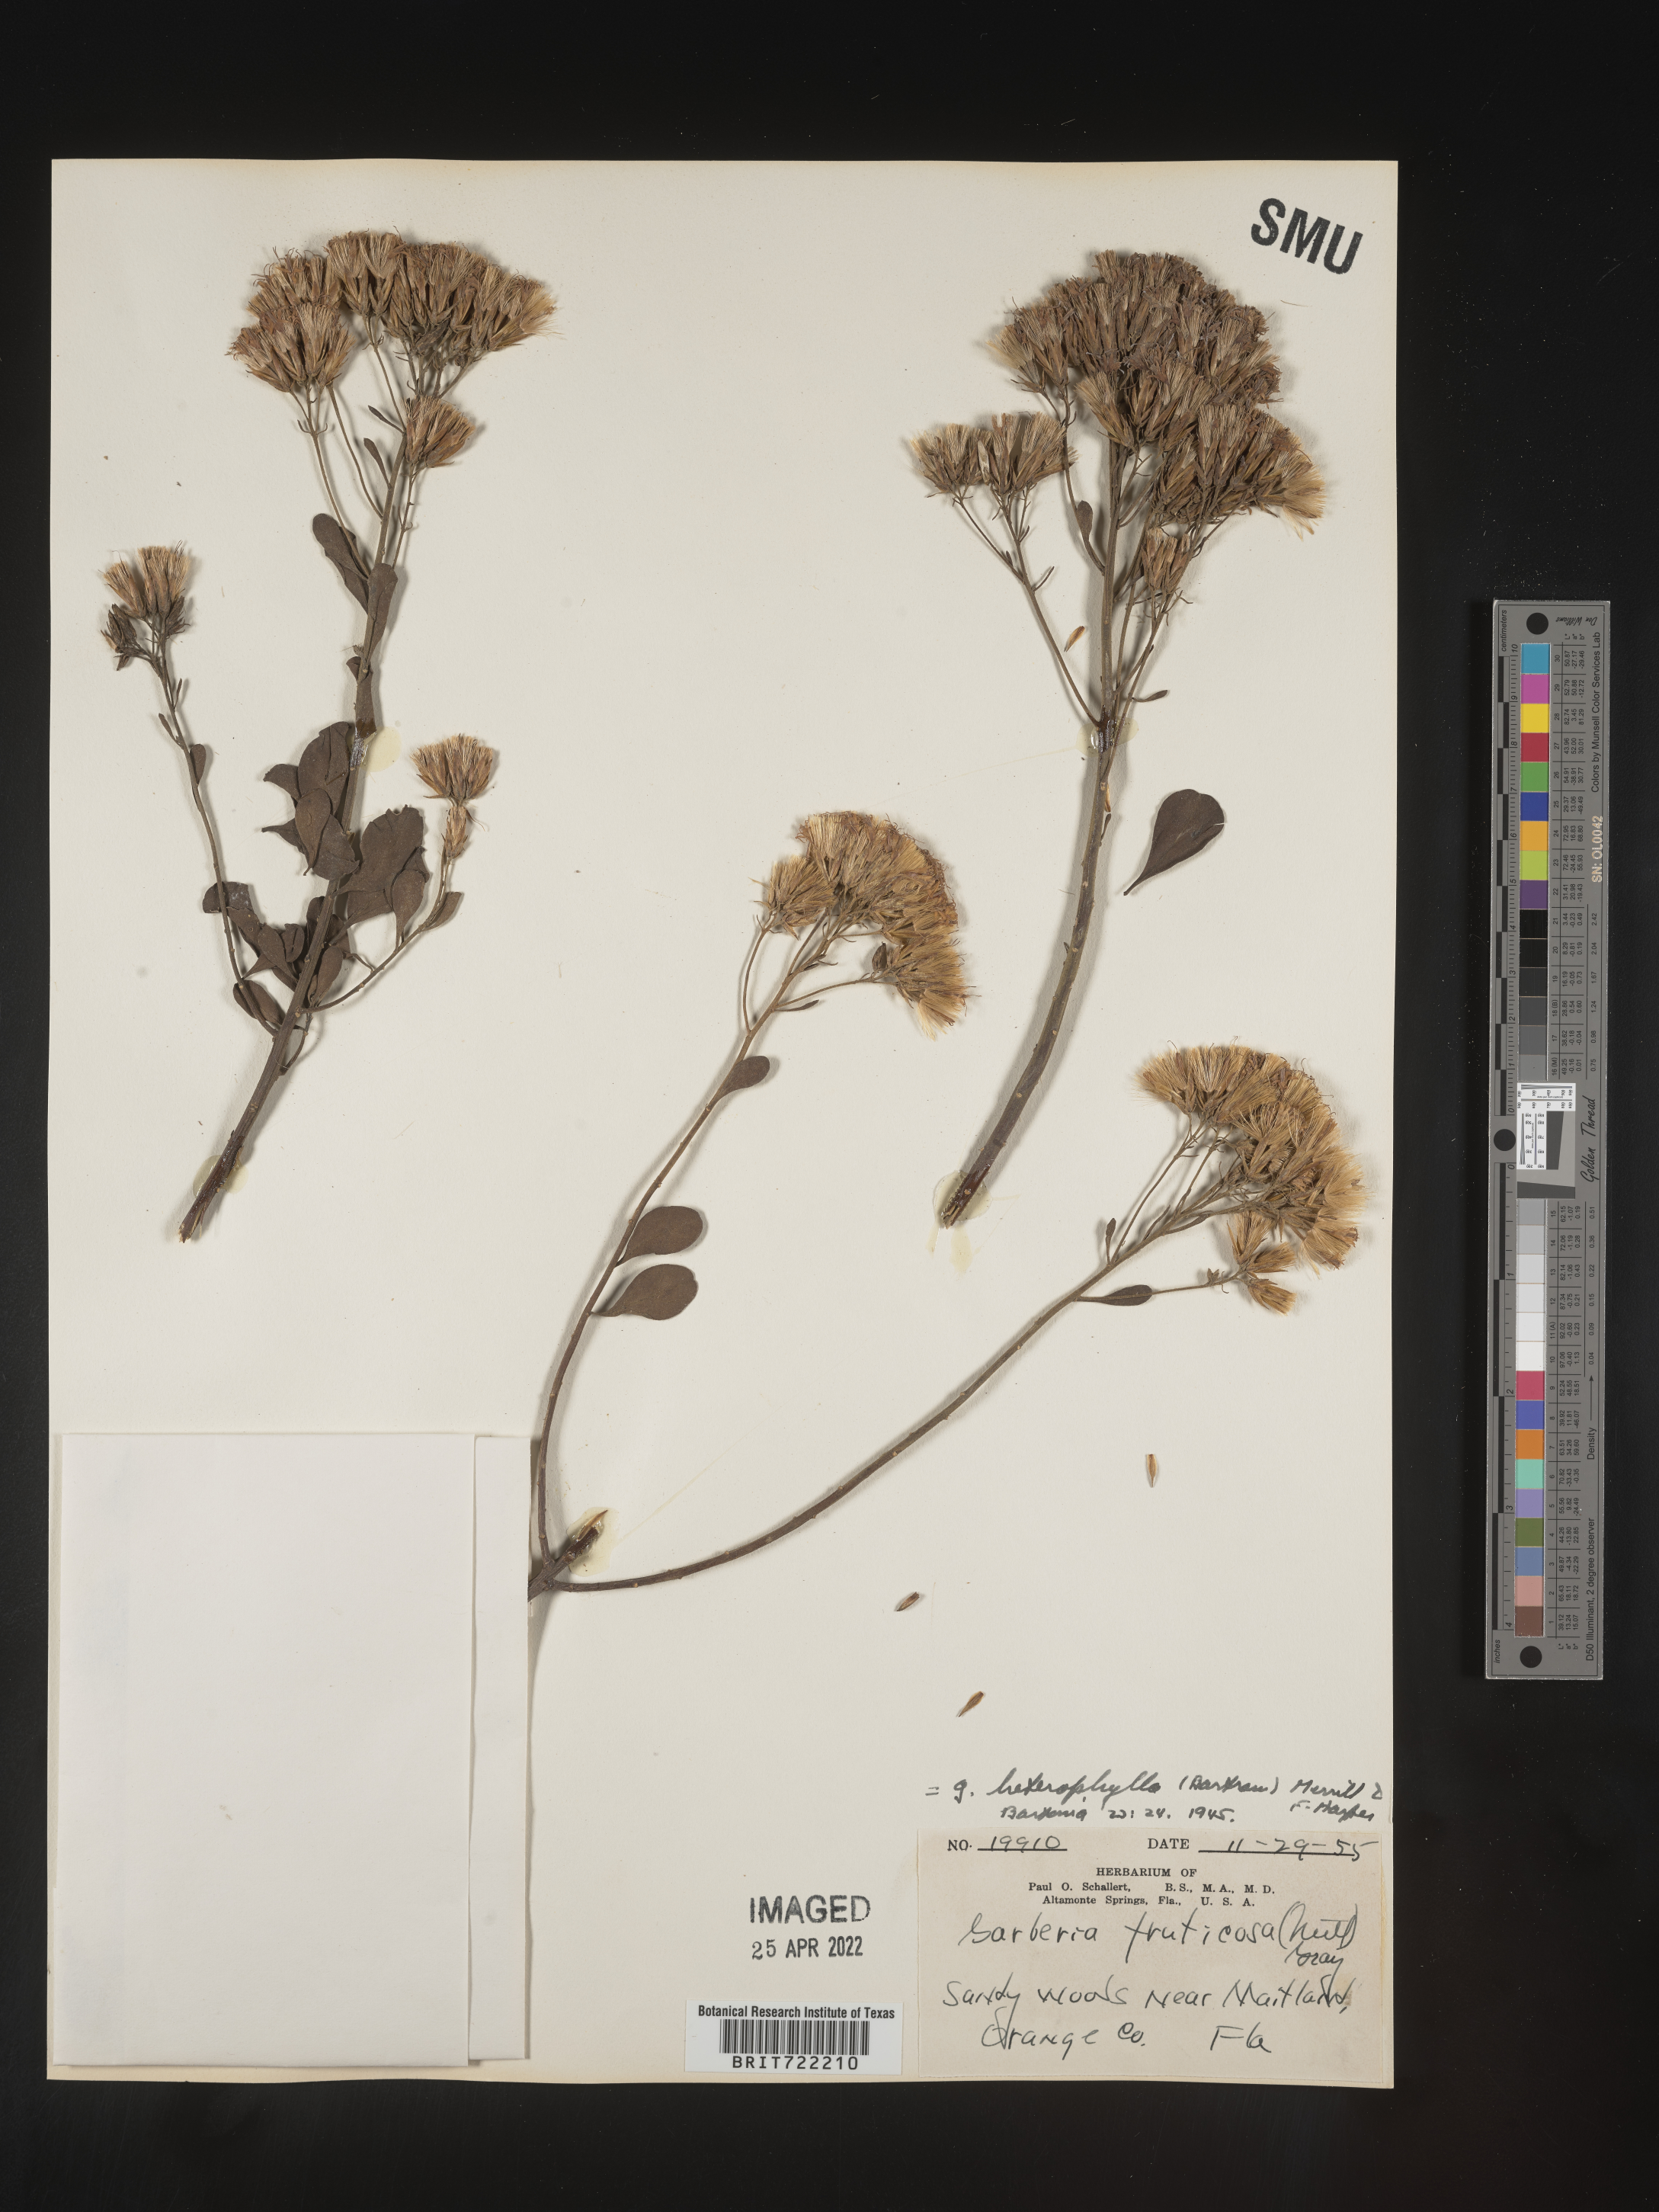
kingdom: Plantae
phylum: Tracheophyta
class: Magnoliopsida
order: Asterales
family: Asteraceae
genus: Garberia
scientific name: Garberia
